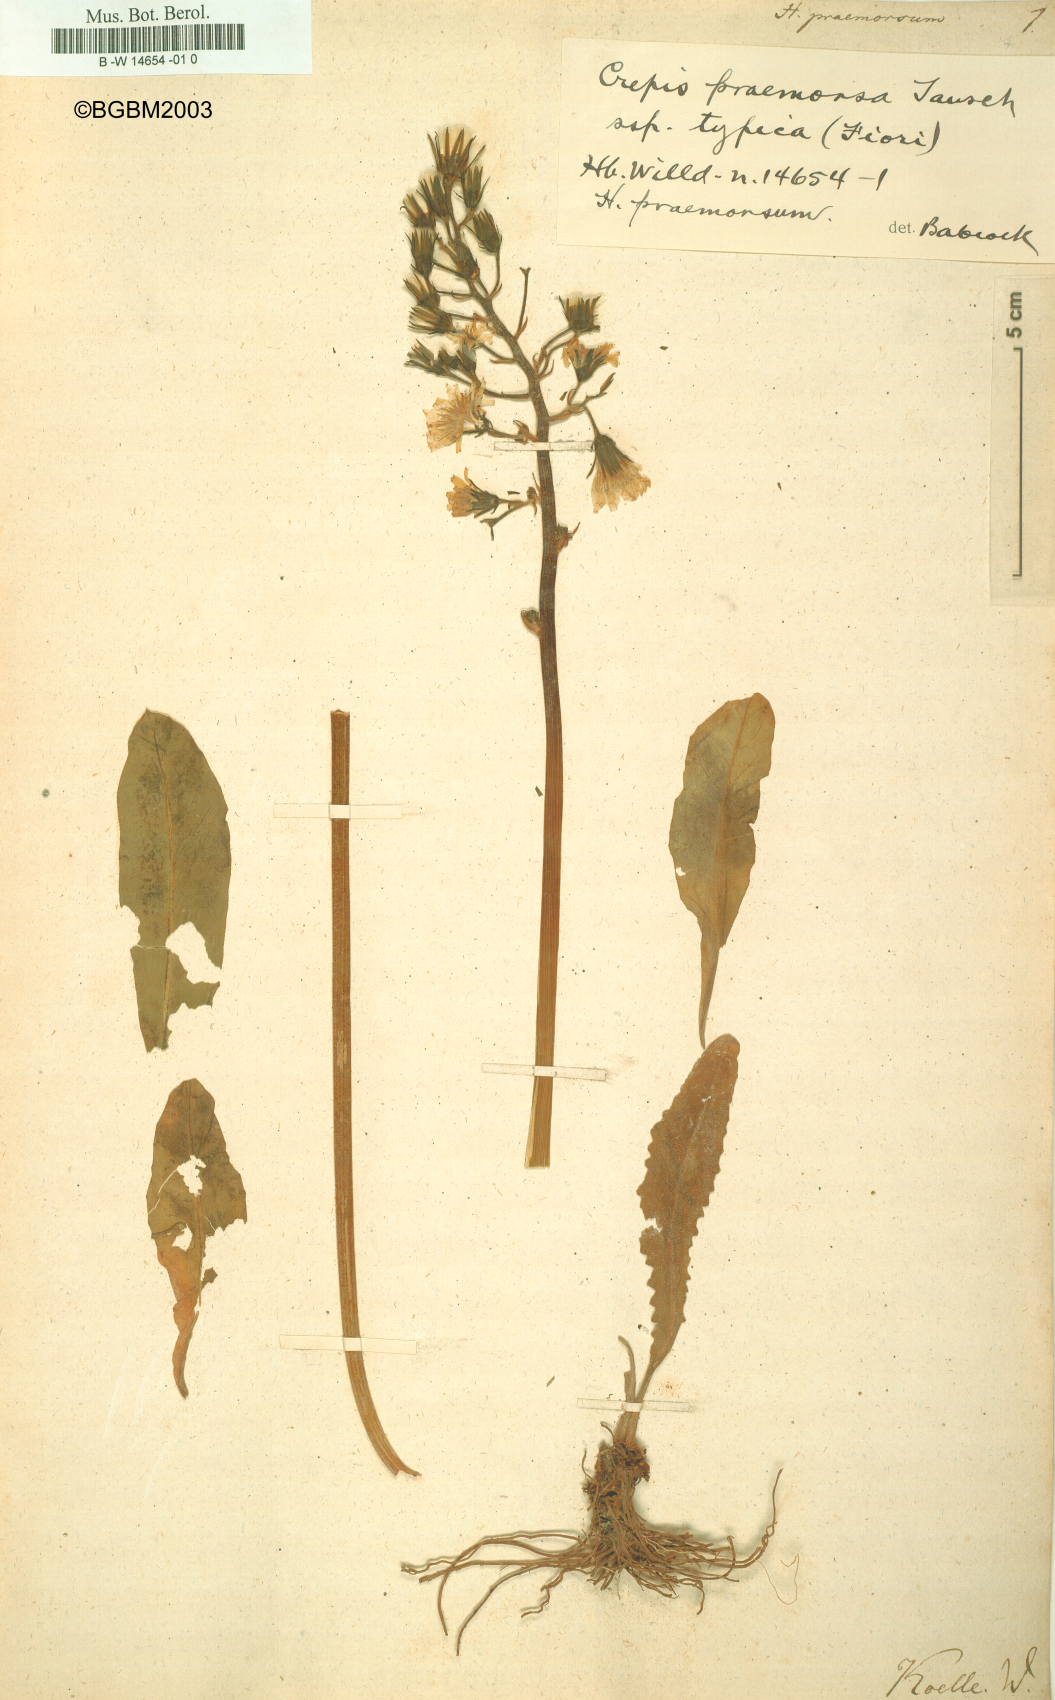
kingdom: Plantae
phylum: Tracheophyta
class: Magnoliopsida
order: Asterales
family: Asteraceae
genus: Hieracium
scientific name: Hieracium praemorsum
